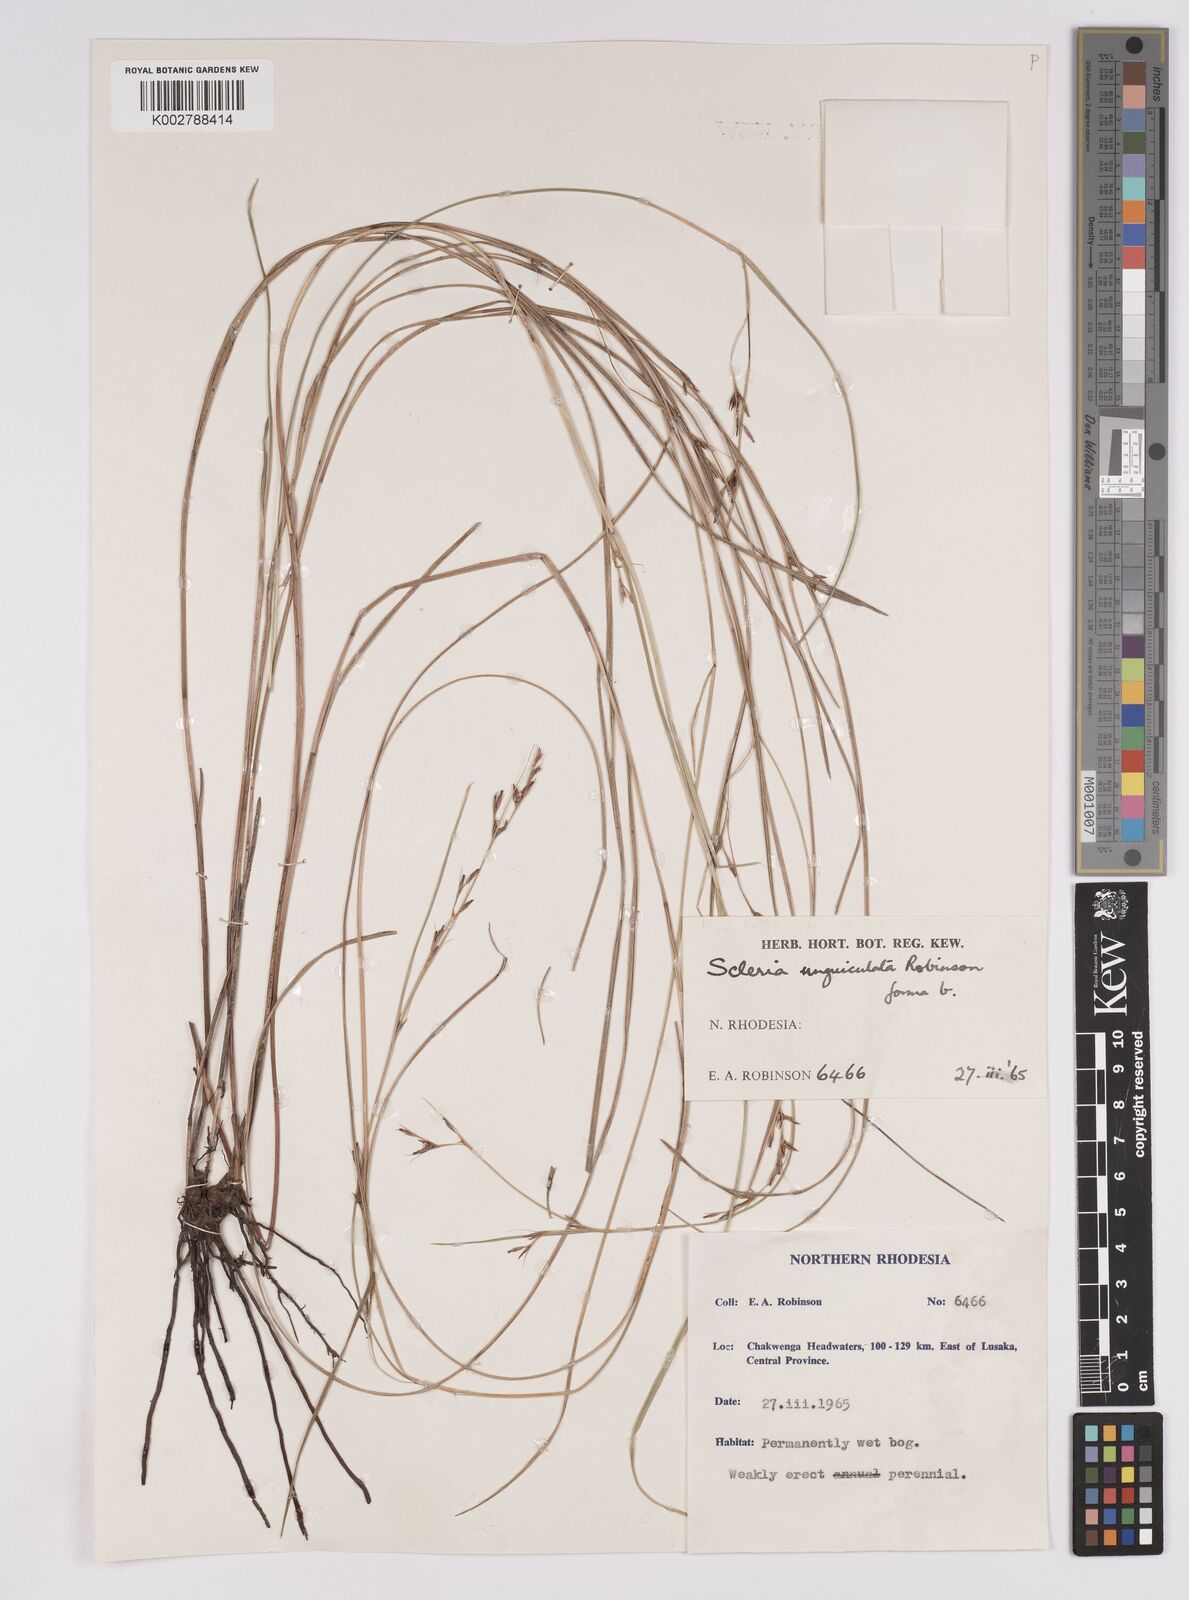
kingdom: Plantae
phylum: Tracheophyta
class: Liliopsida
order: Poales
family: Cyperaceae
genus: Scleria
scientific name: Scleria unguiculata
